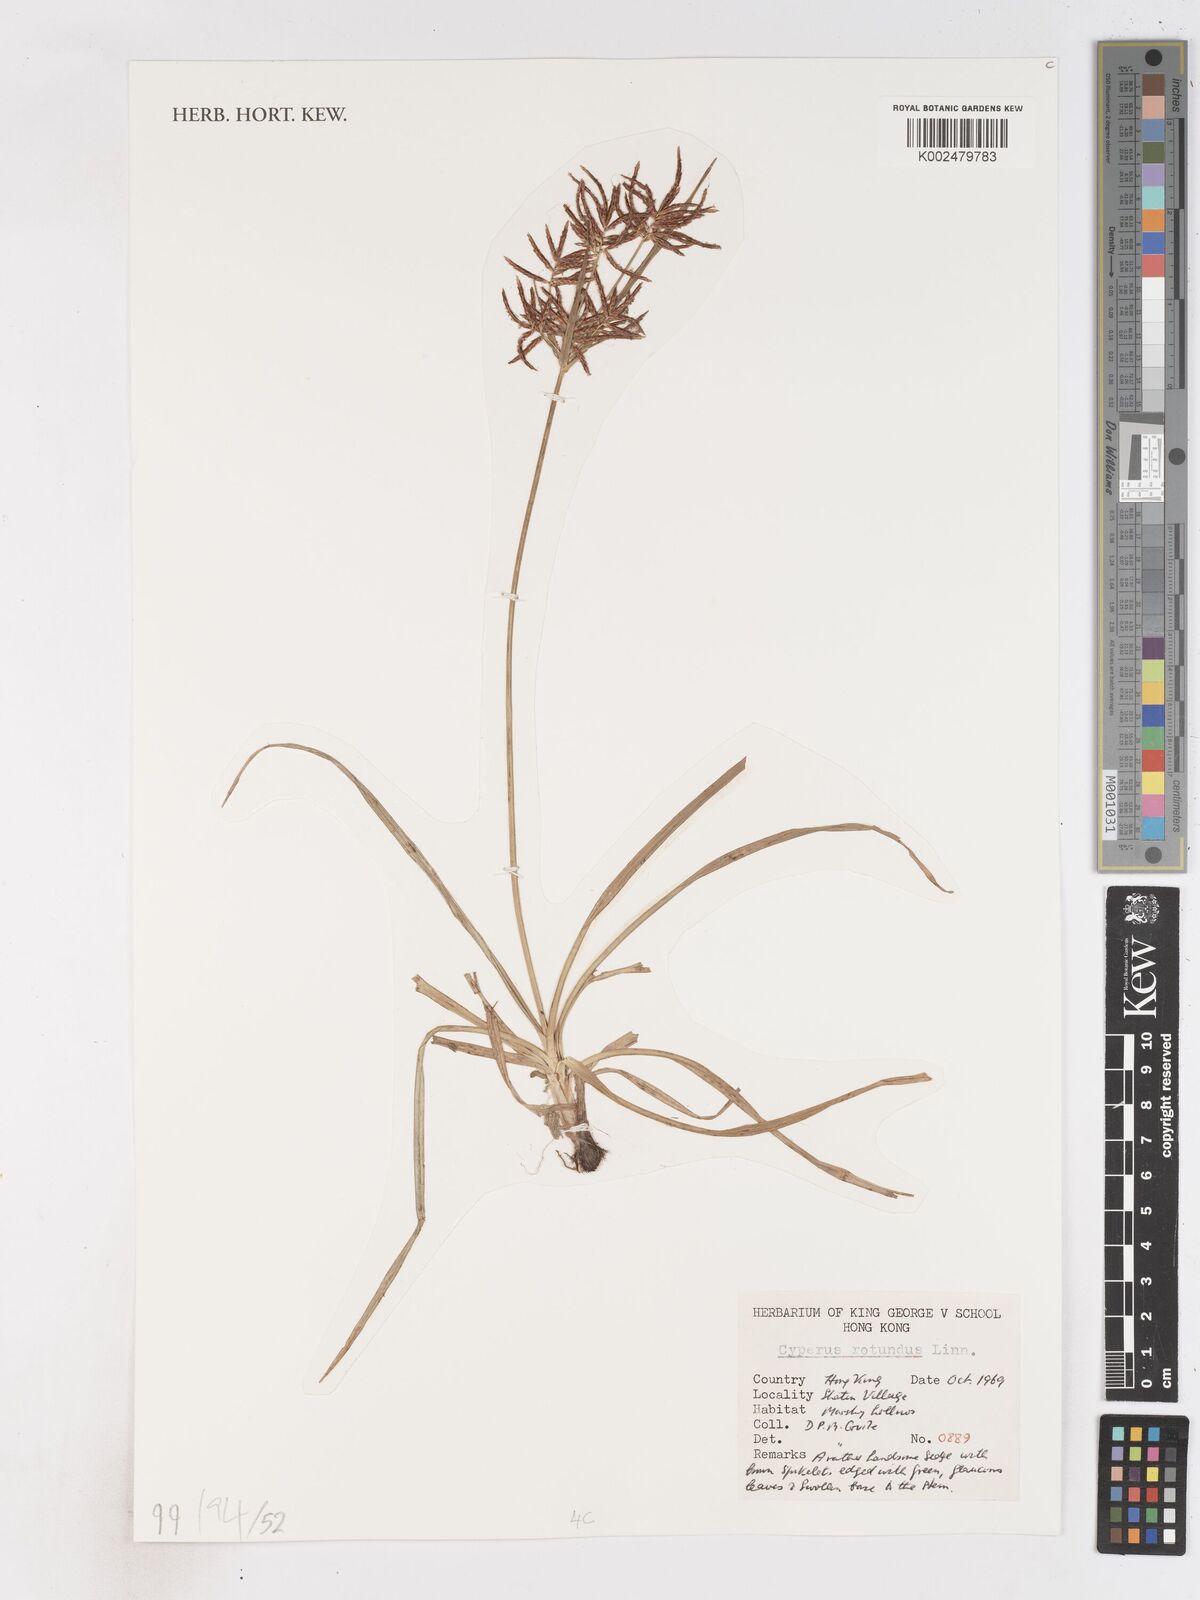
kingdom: Plantae
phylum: Tracheophyta
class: Liliopsida
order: Poales
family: Cyperaceae
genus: Cyperus
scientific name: Cyperus rotundus
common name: Nutgrass
